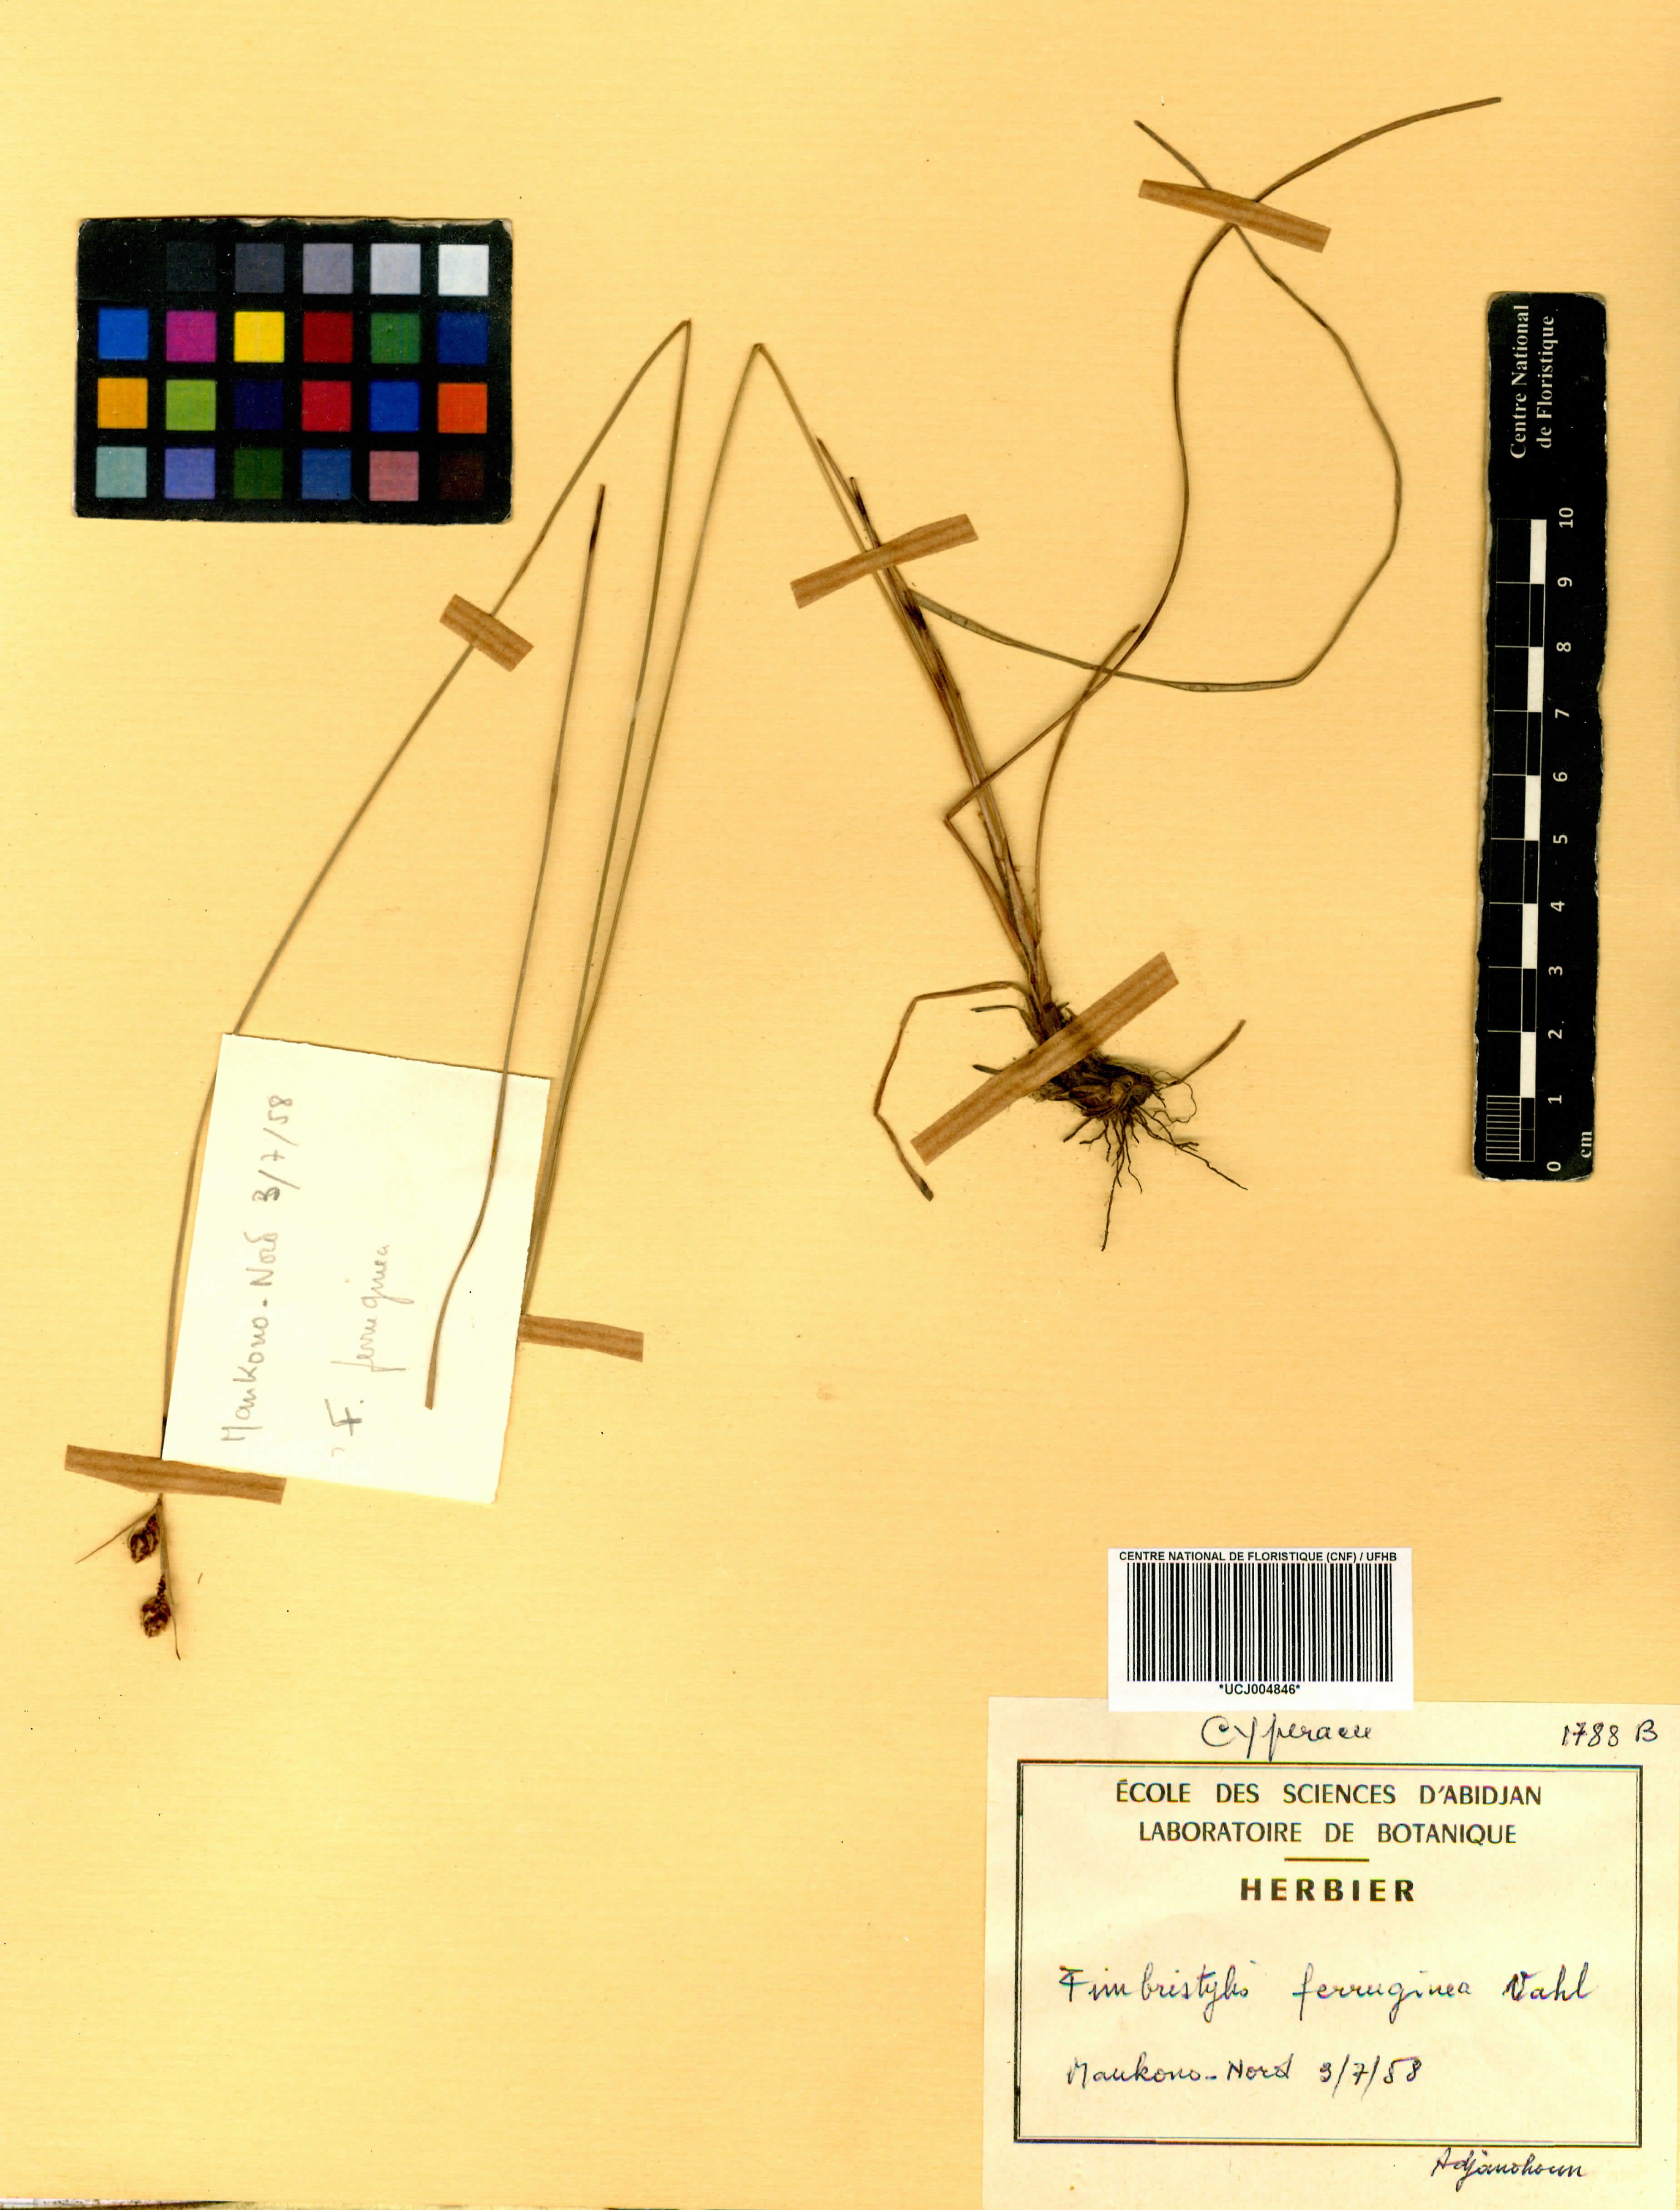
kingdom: Plantae
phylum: Tracheophyta
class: Liliopsida
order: Poales
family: Cyperaceae
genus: Bulbostylis
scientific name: Bulbostylis hispidula
